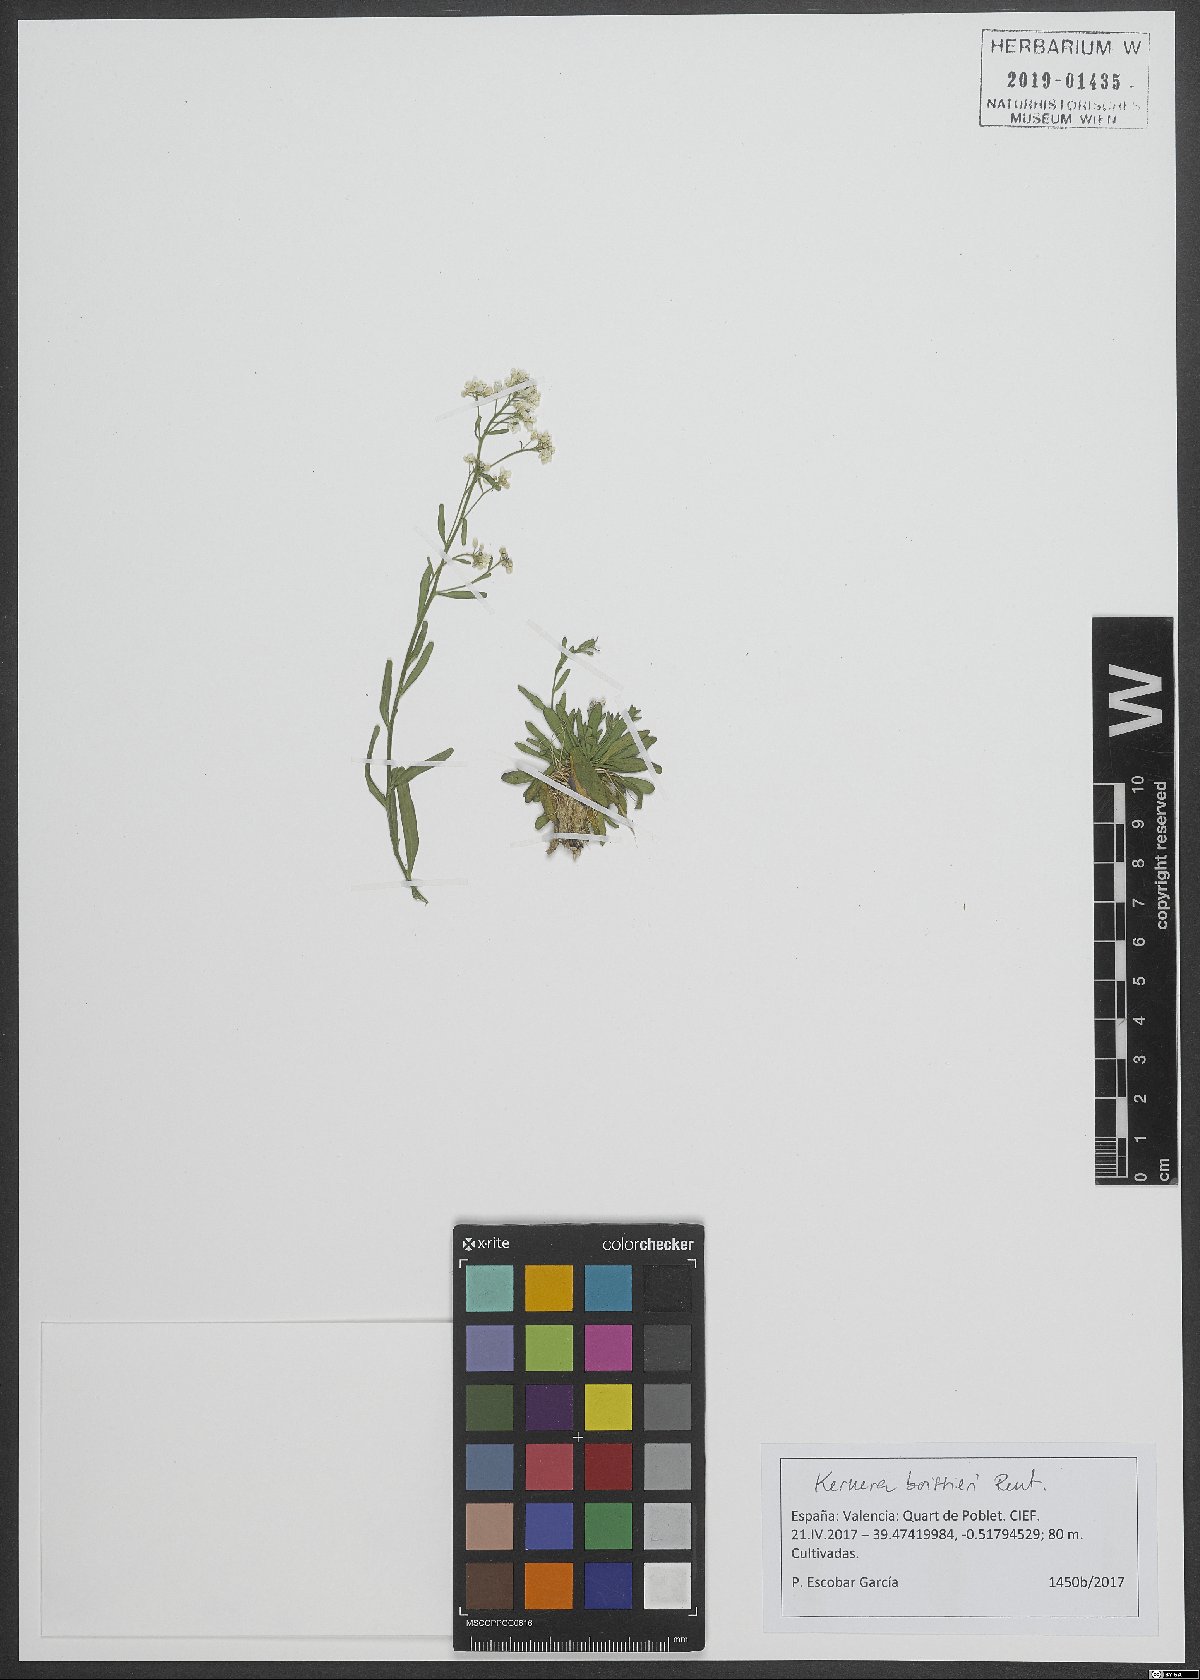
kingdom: Plantae
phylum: Tracheophyta
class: Magnoliopsida
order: Brassicales
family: Brassicaceae
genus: Kernera
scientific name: Kernera saxatilis
